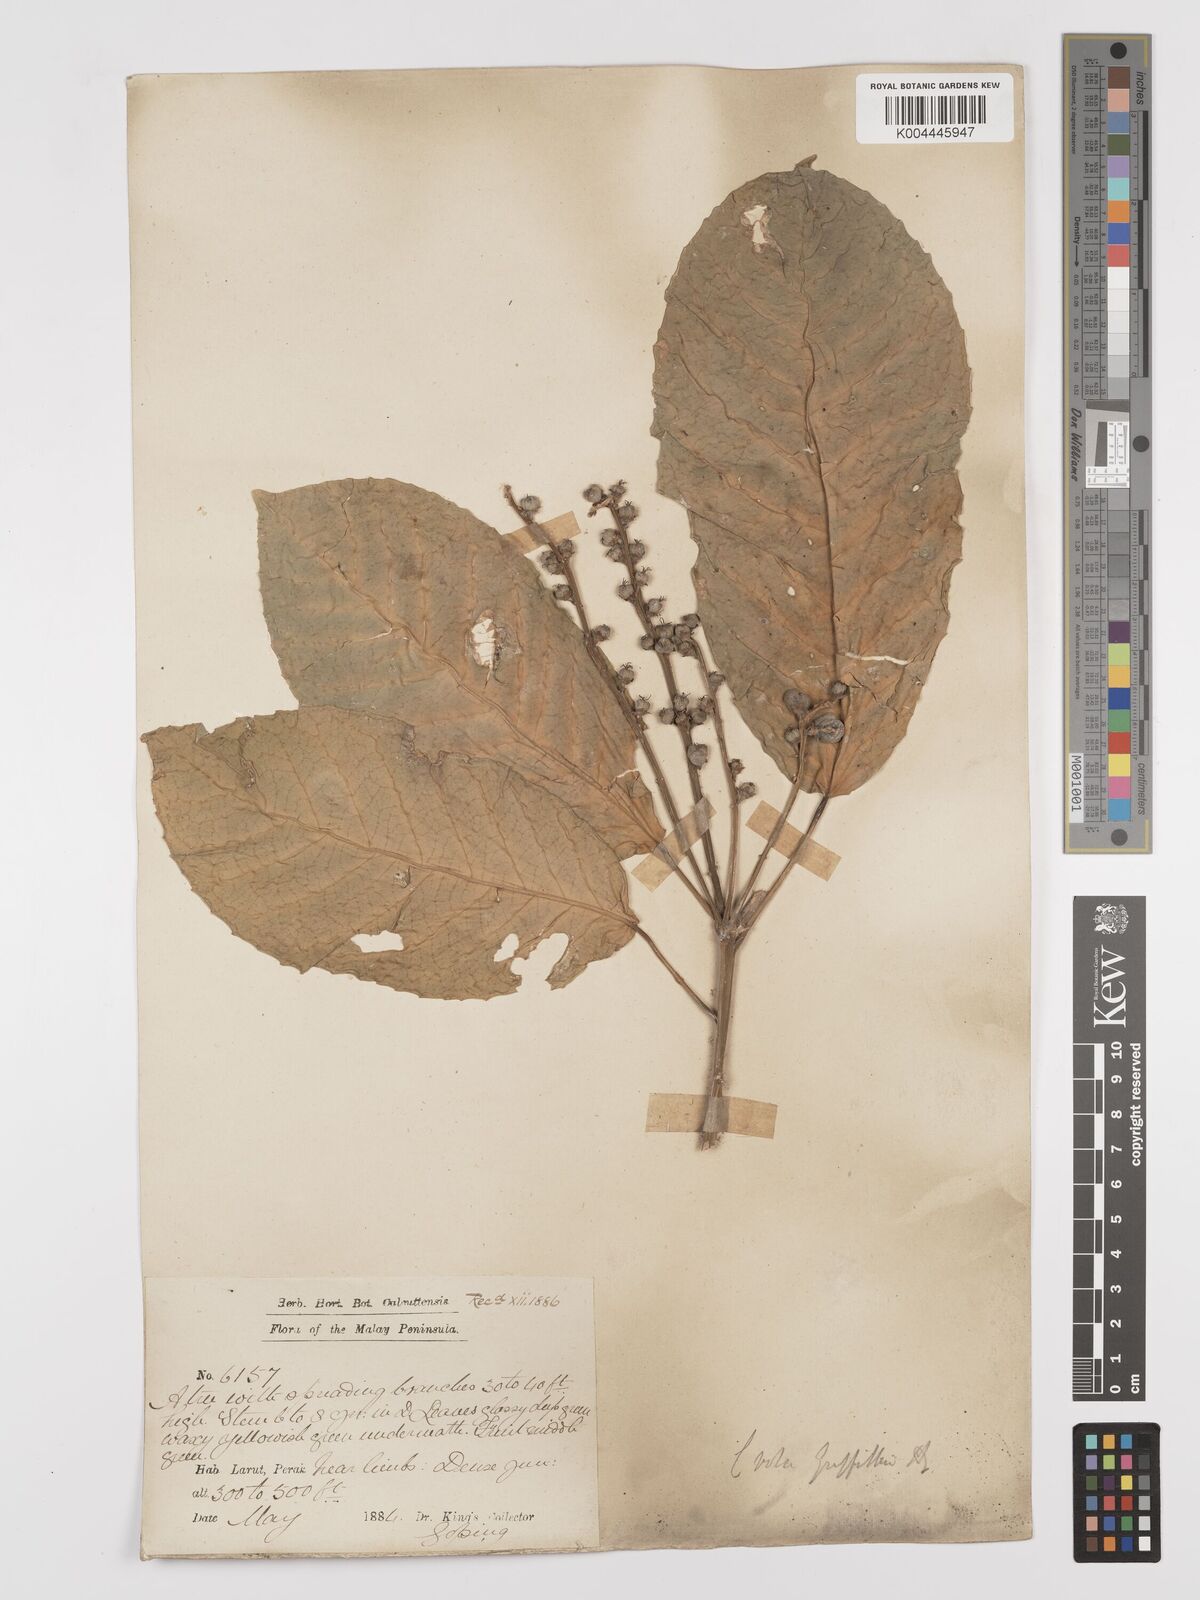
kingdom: Plantae
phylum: Tracheophyta
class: Magnoliopsida
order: Malpighiales
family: Euphorbiaceae
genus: Croton
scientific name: Croton griffithii
